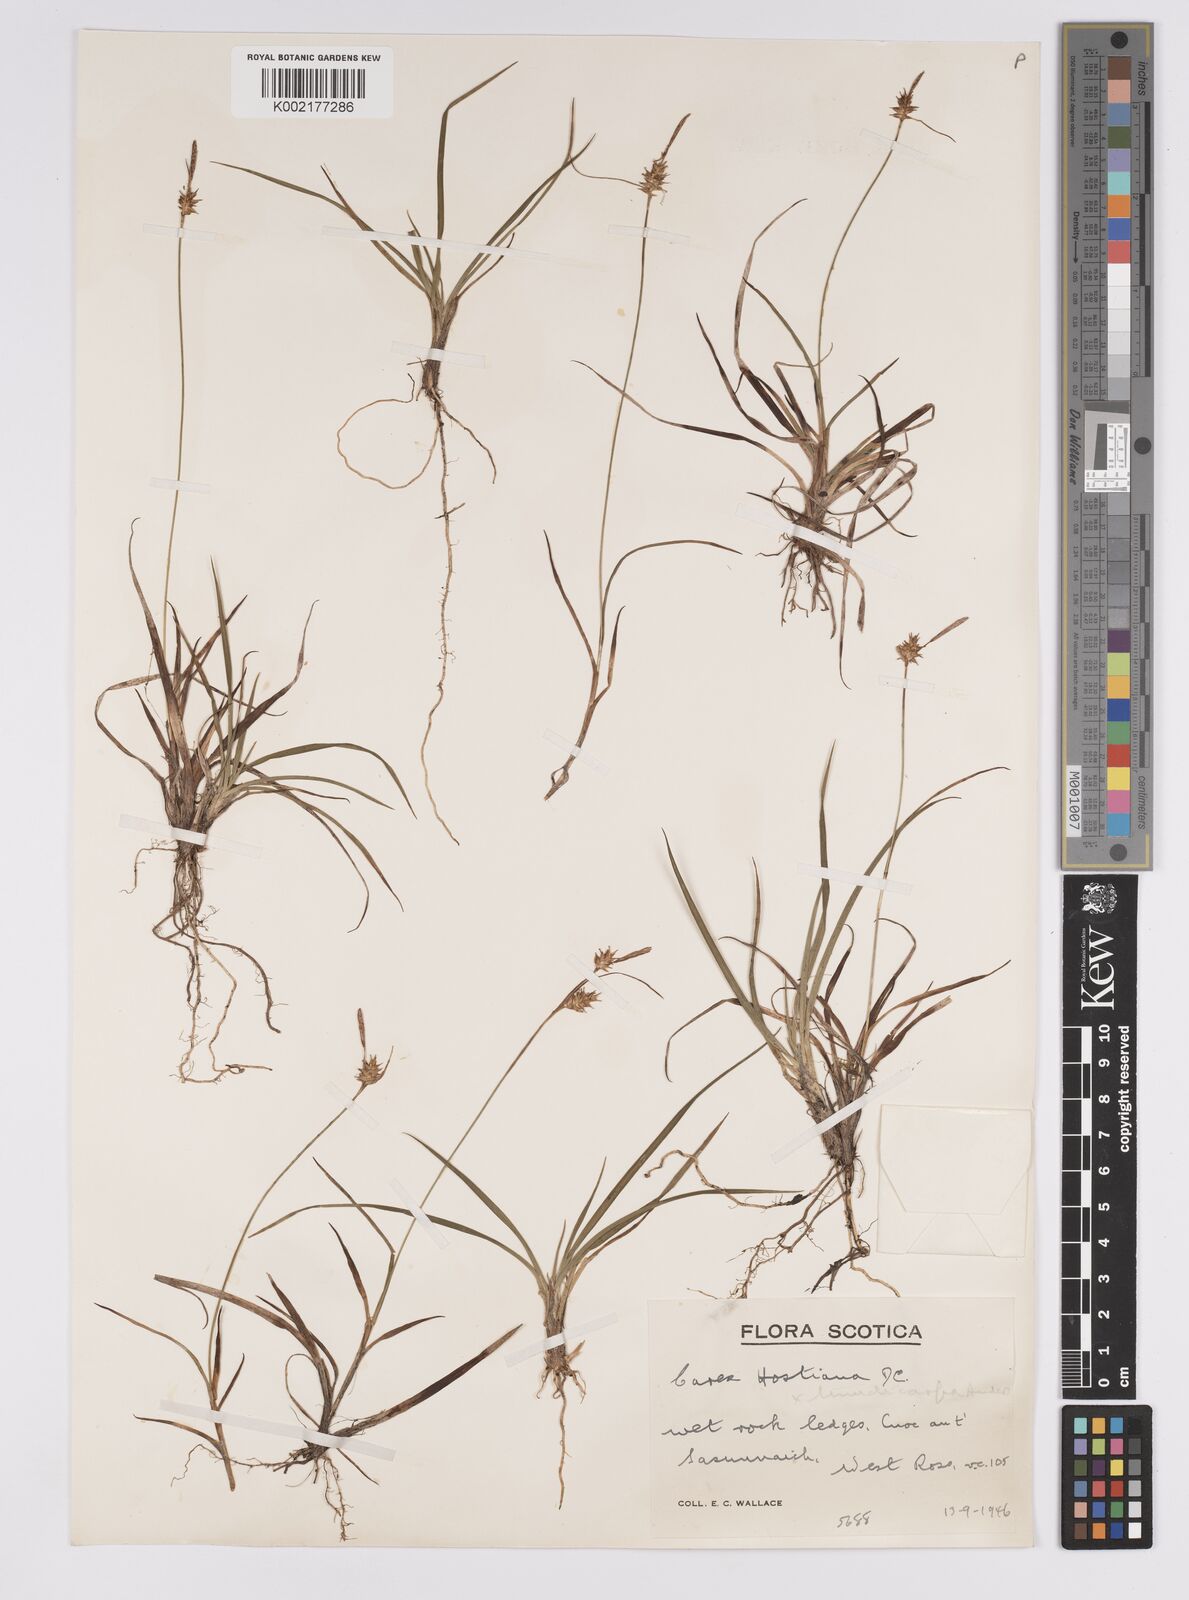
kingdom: Plantae
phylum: Tracheophyta
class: Liliopsida
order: Poales
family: Cyperaceae
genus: Carex
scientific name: Carex hostiana
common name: Tawny sedge
